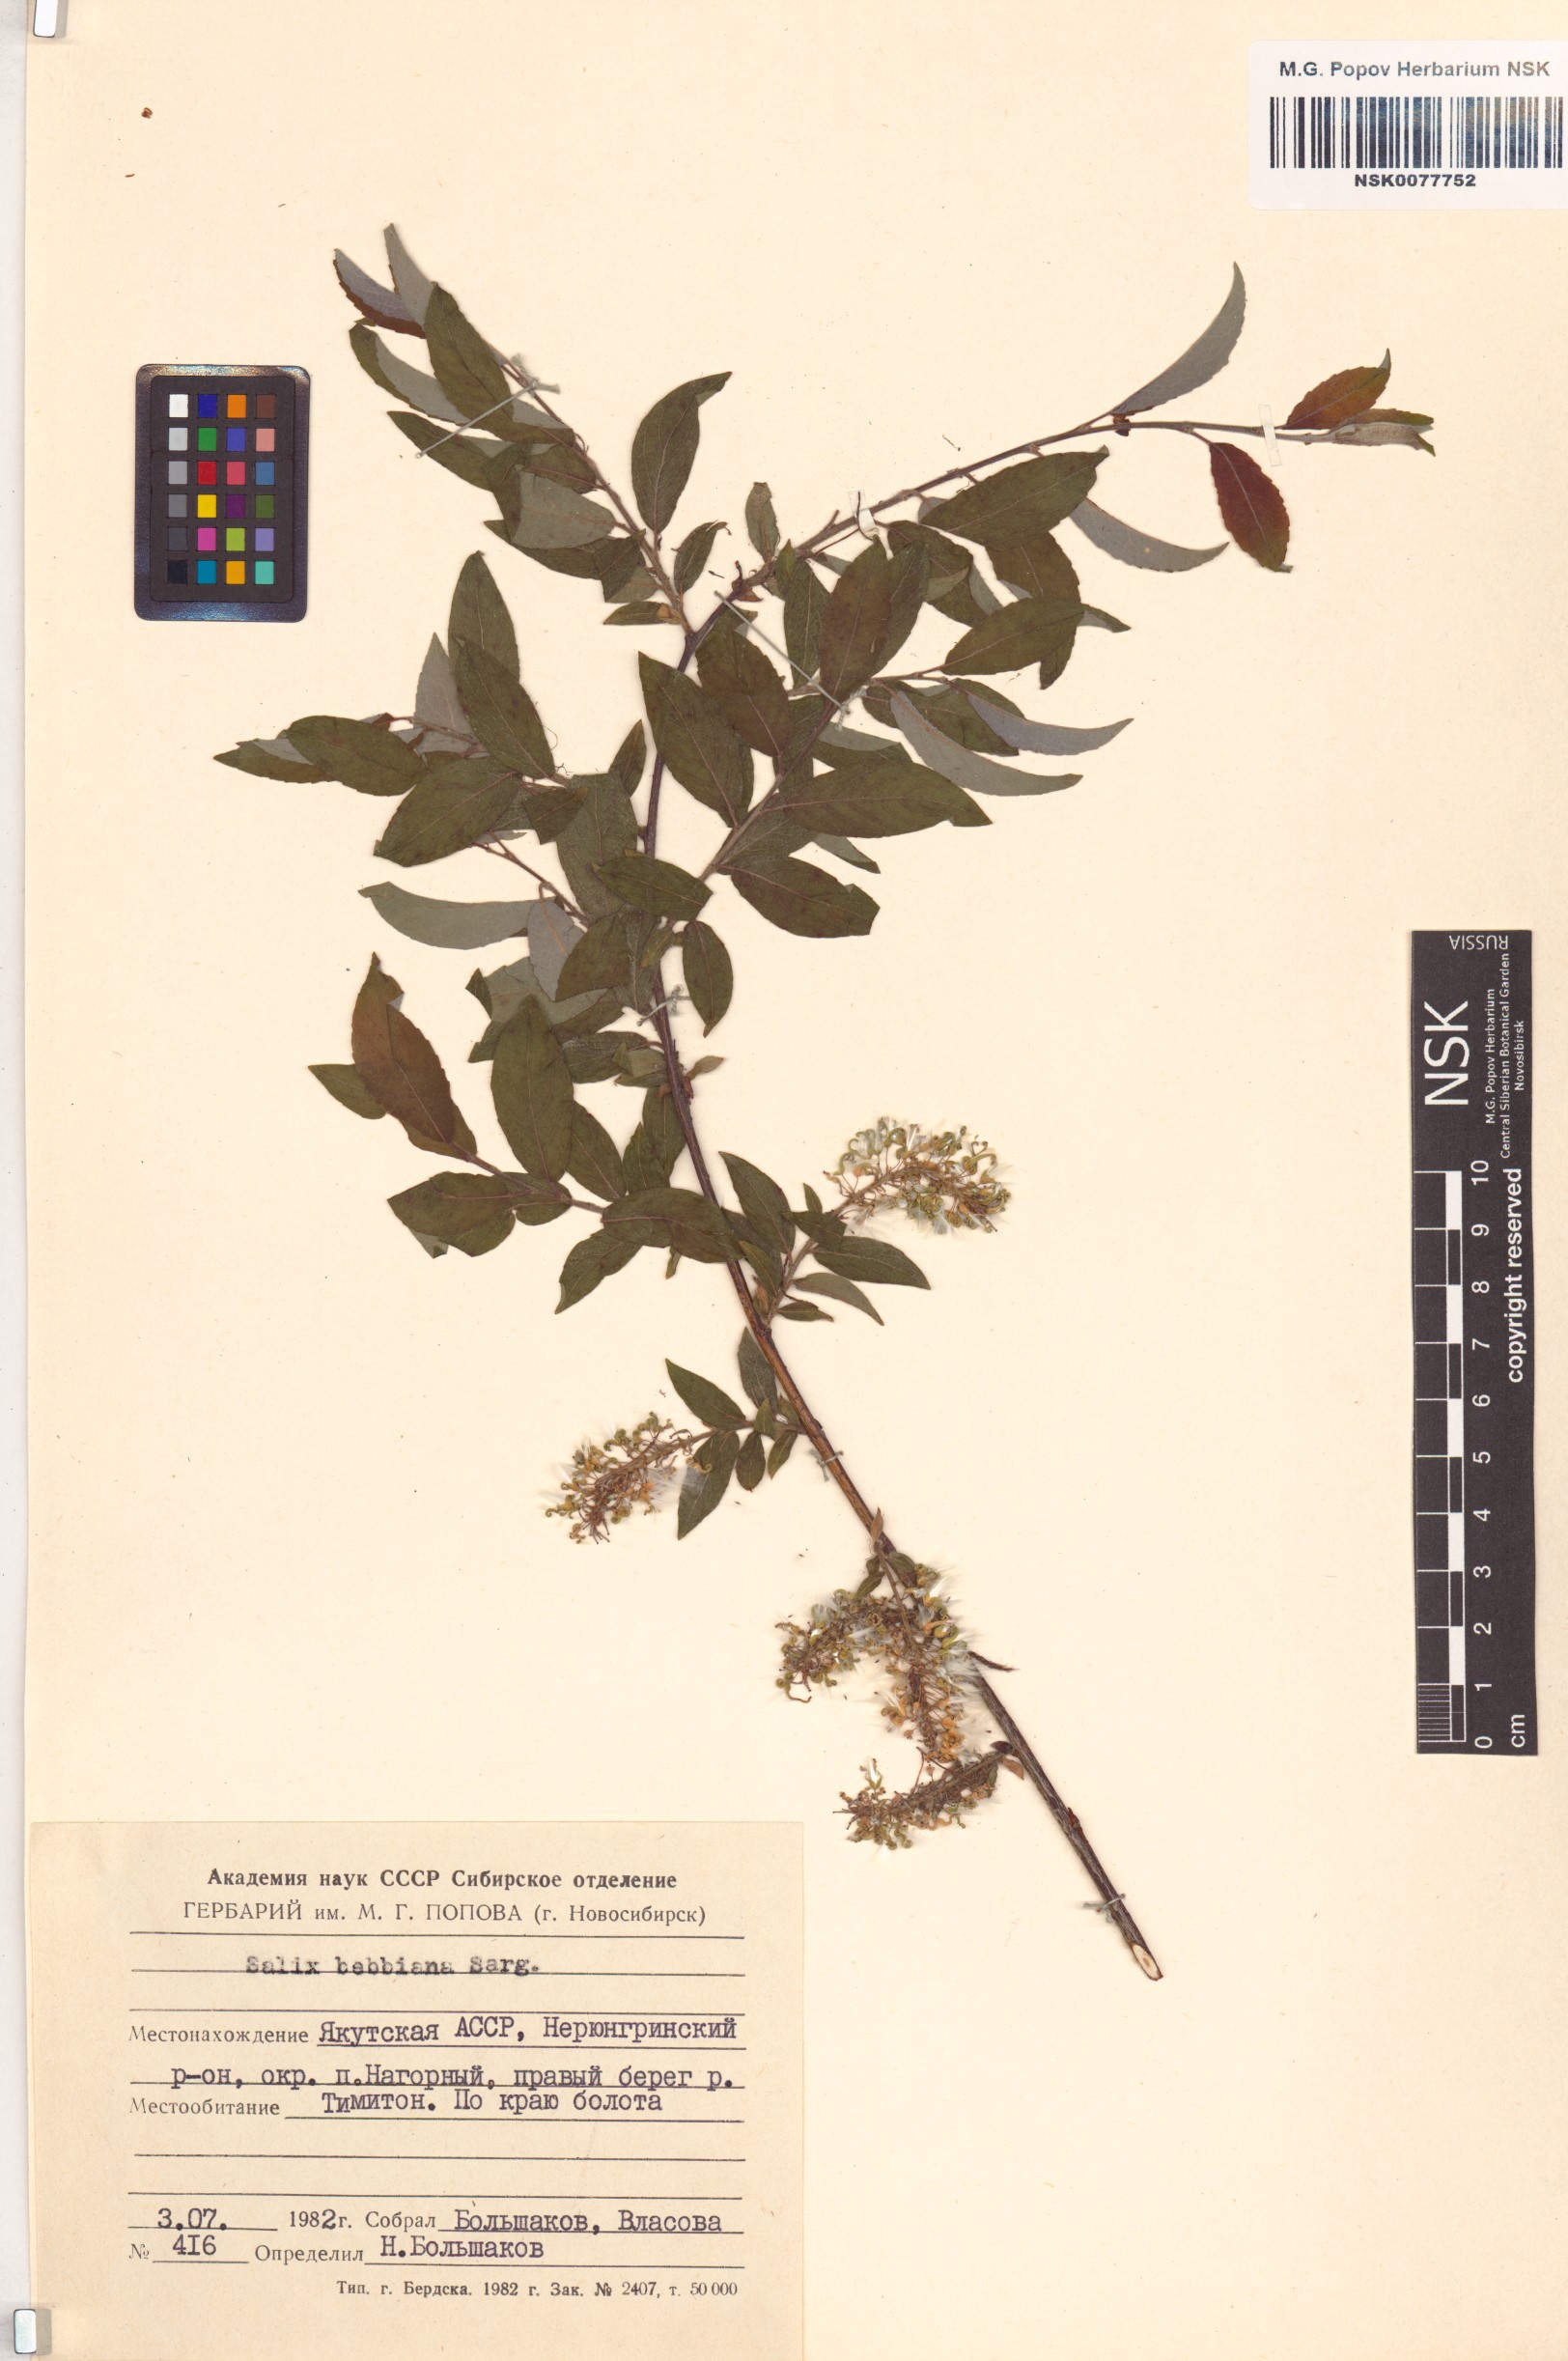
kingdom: Plantae
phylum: Tracheophyta
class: Magnoliopsida
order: Malpighiales
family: Salicaceae
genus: Salix
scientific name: Salix bebbiana
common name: Bebb's willow
